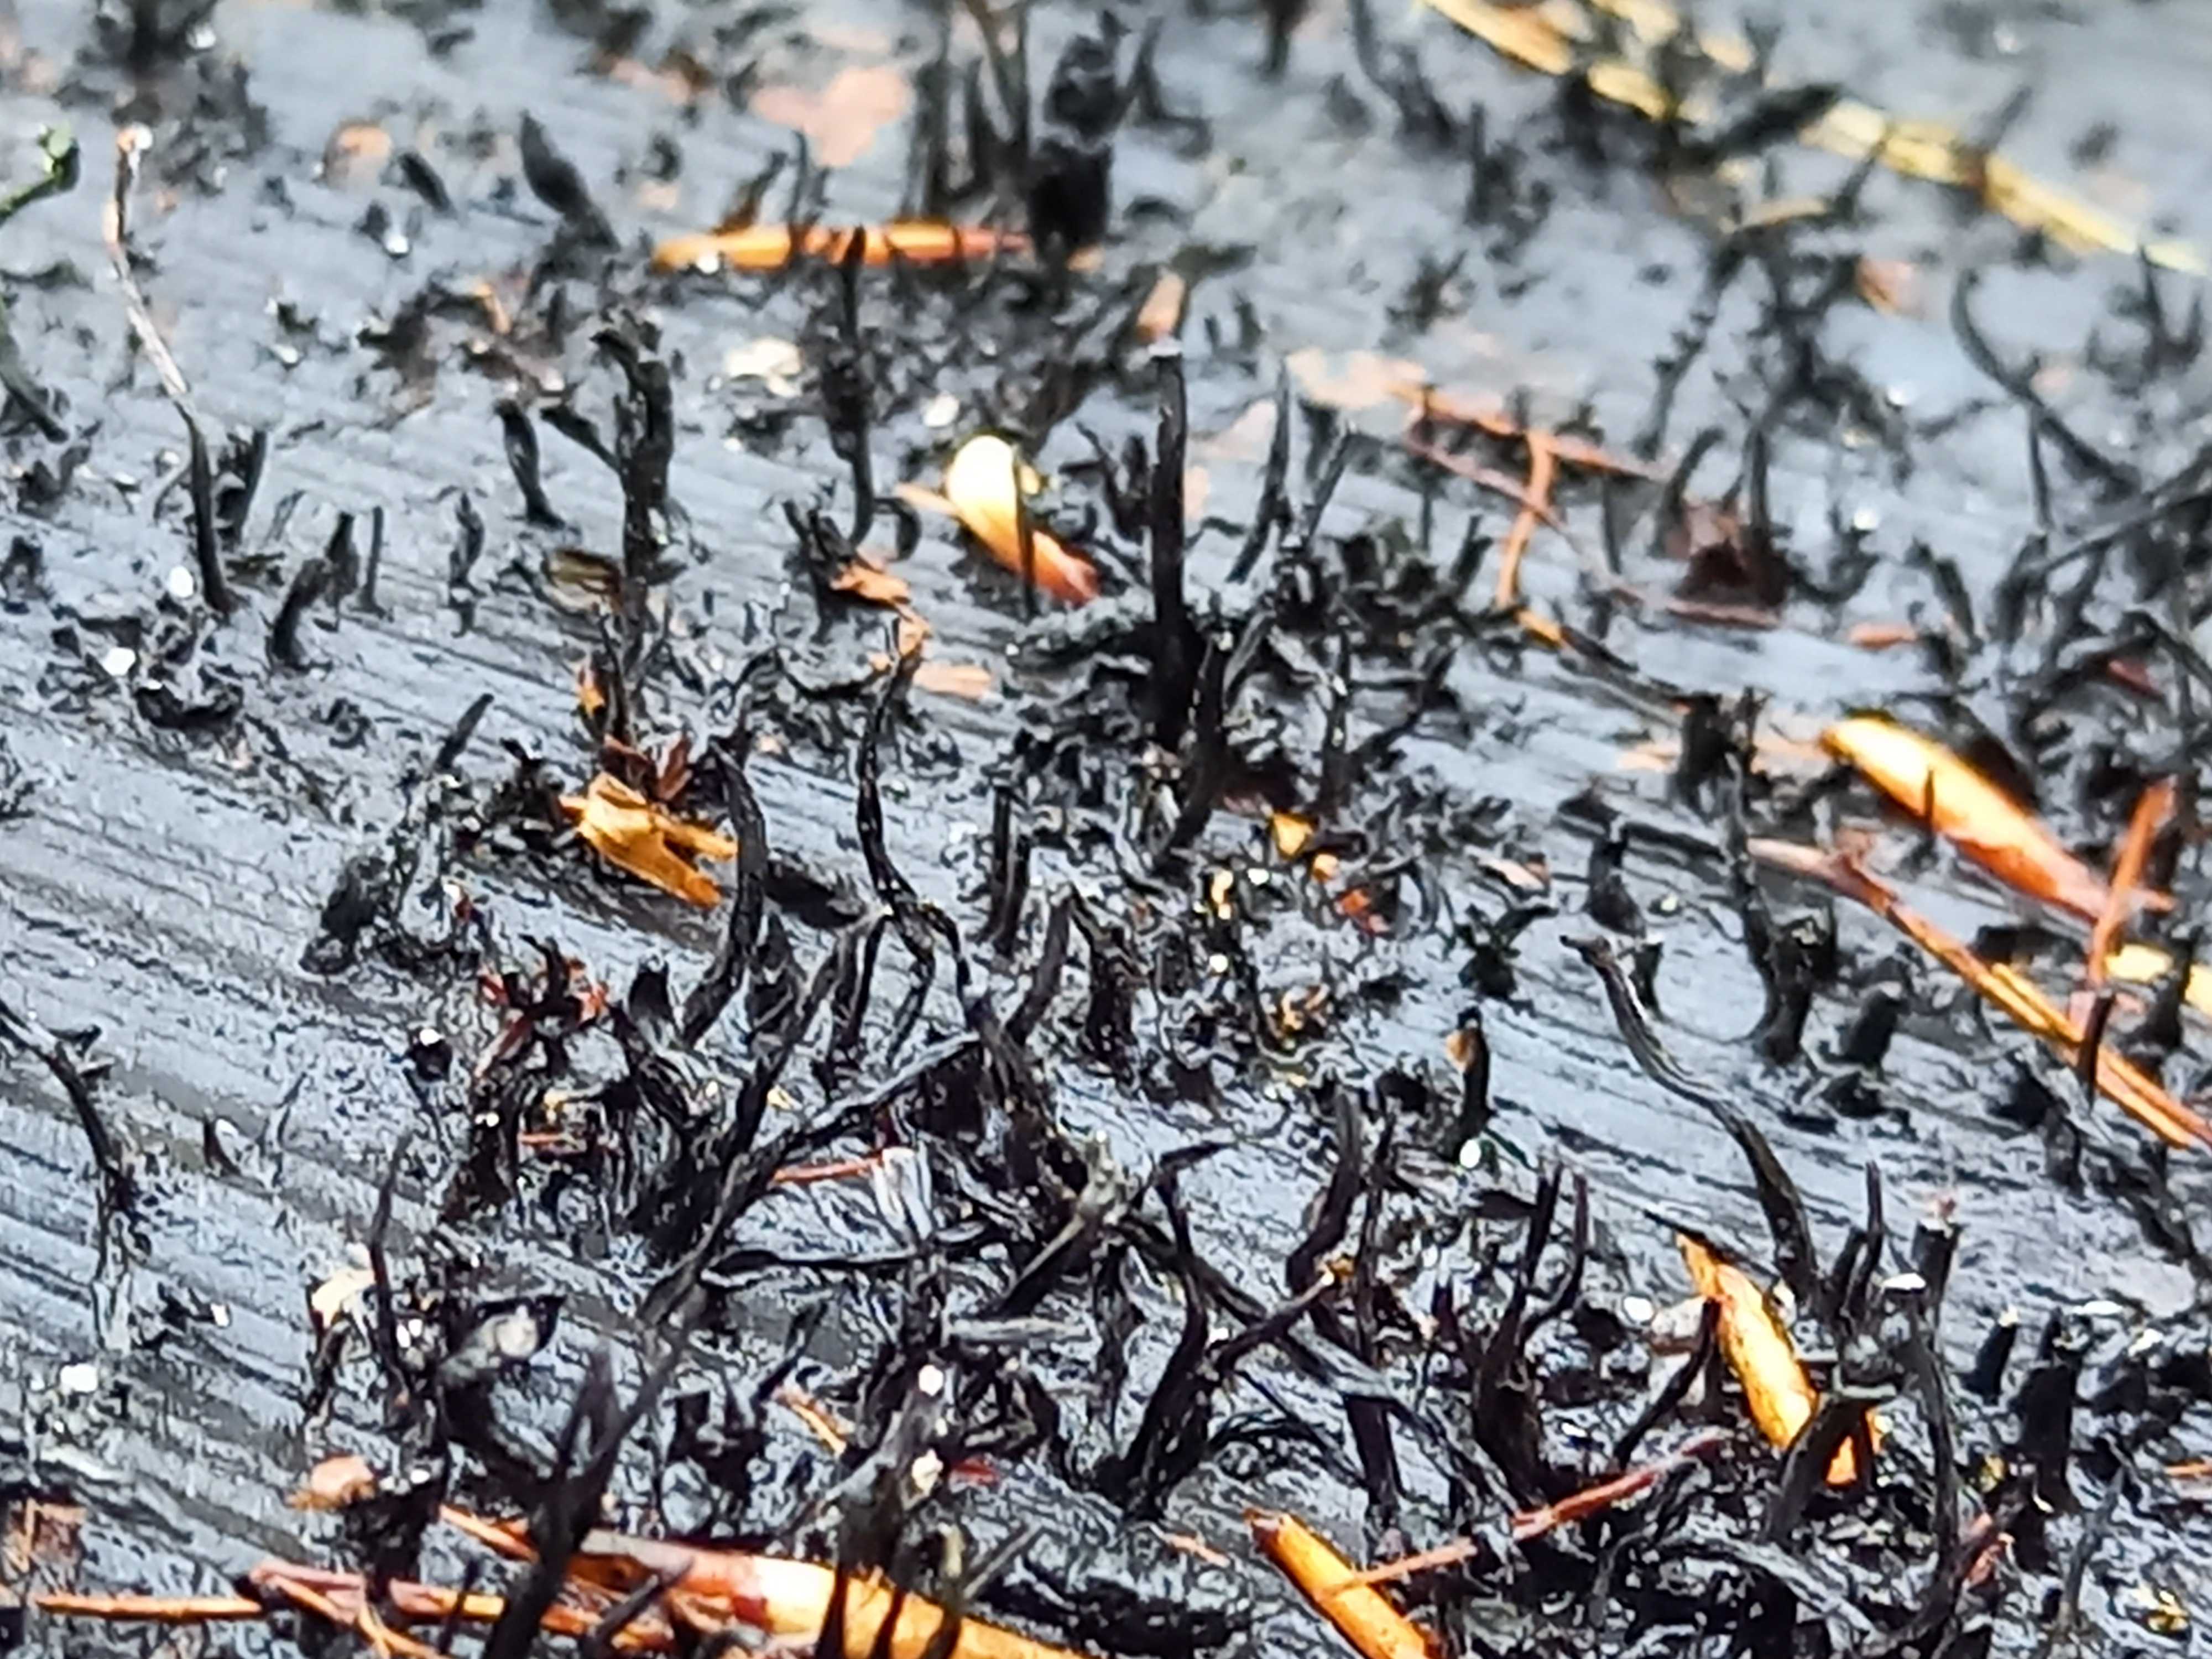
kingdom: Fungi
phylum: Ascomycota
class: Sordariomycetes
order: Xylariales
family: Xylariaceae
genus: Xylaria
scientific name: Xylaria hypoxylon
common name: grenet stødsvamp
